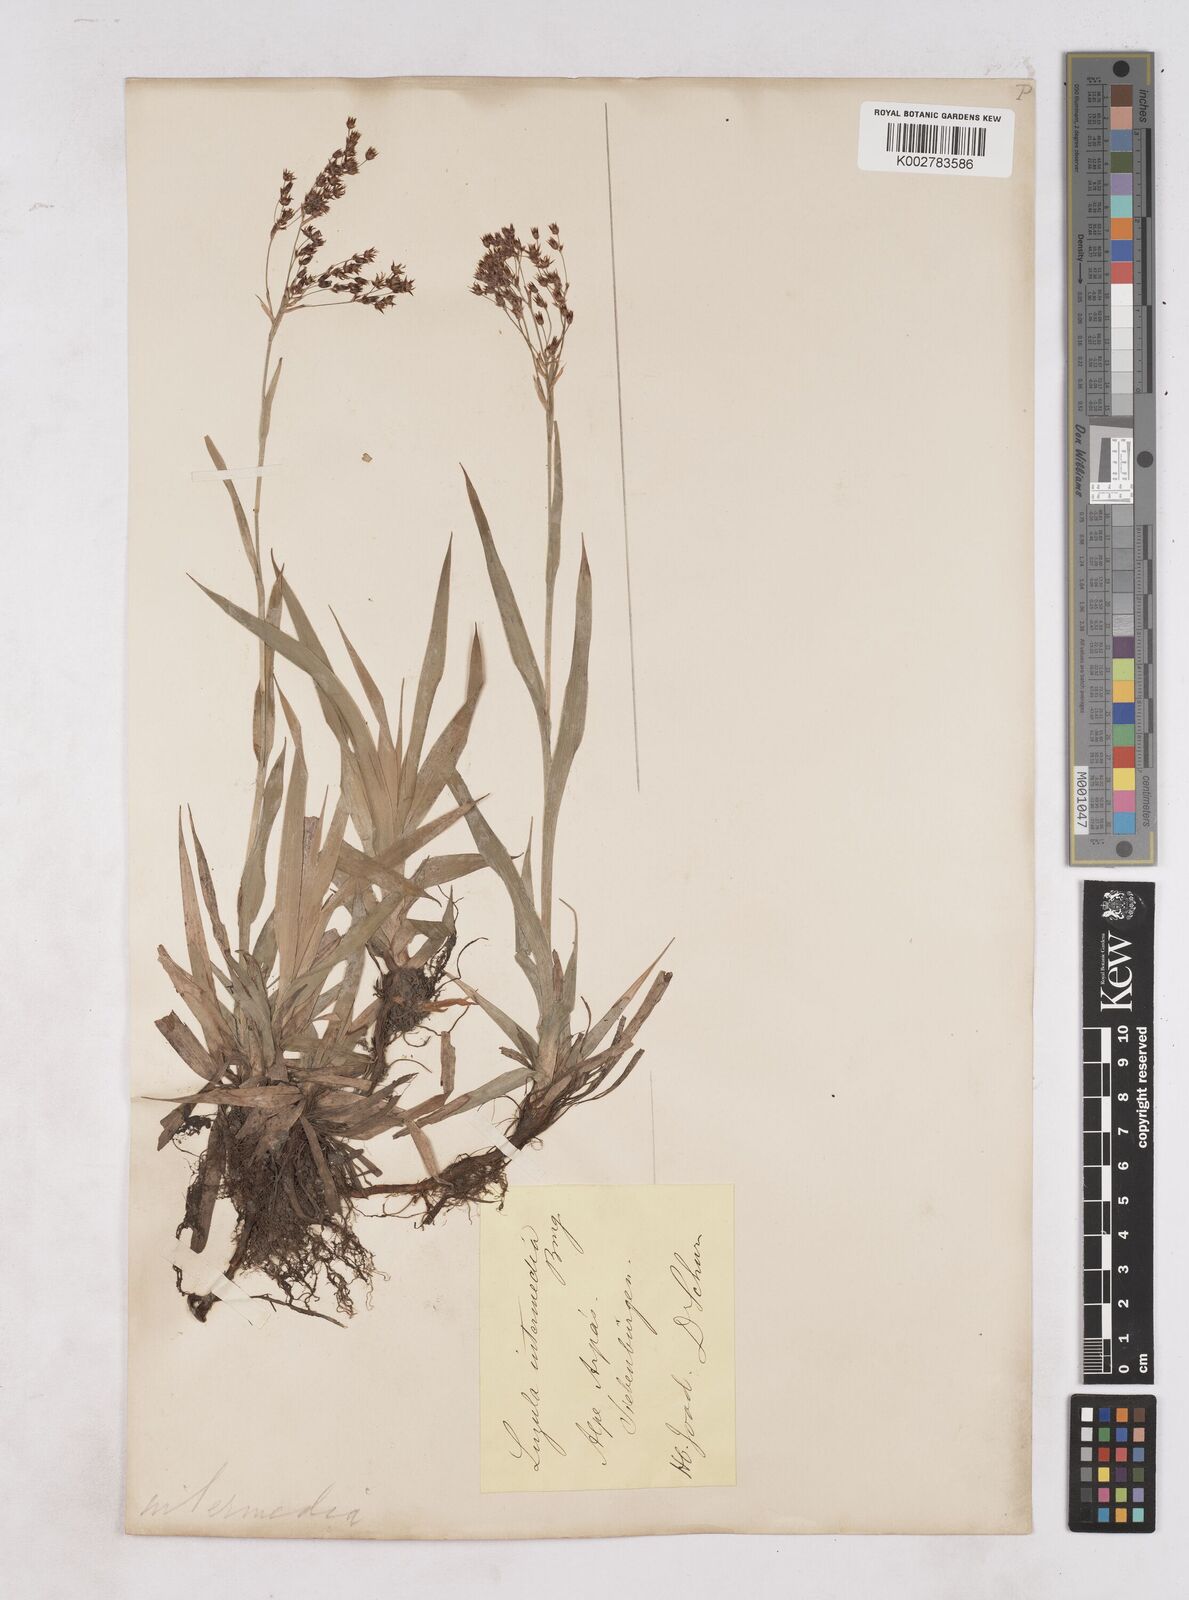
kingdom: Plantae
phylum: Tracheophyta
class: Liliopsida
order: Poales
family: Juncaceae
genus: Luzula
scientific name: Luzula
